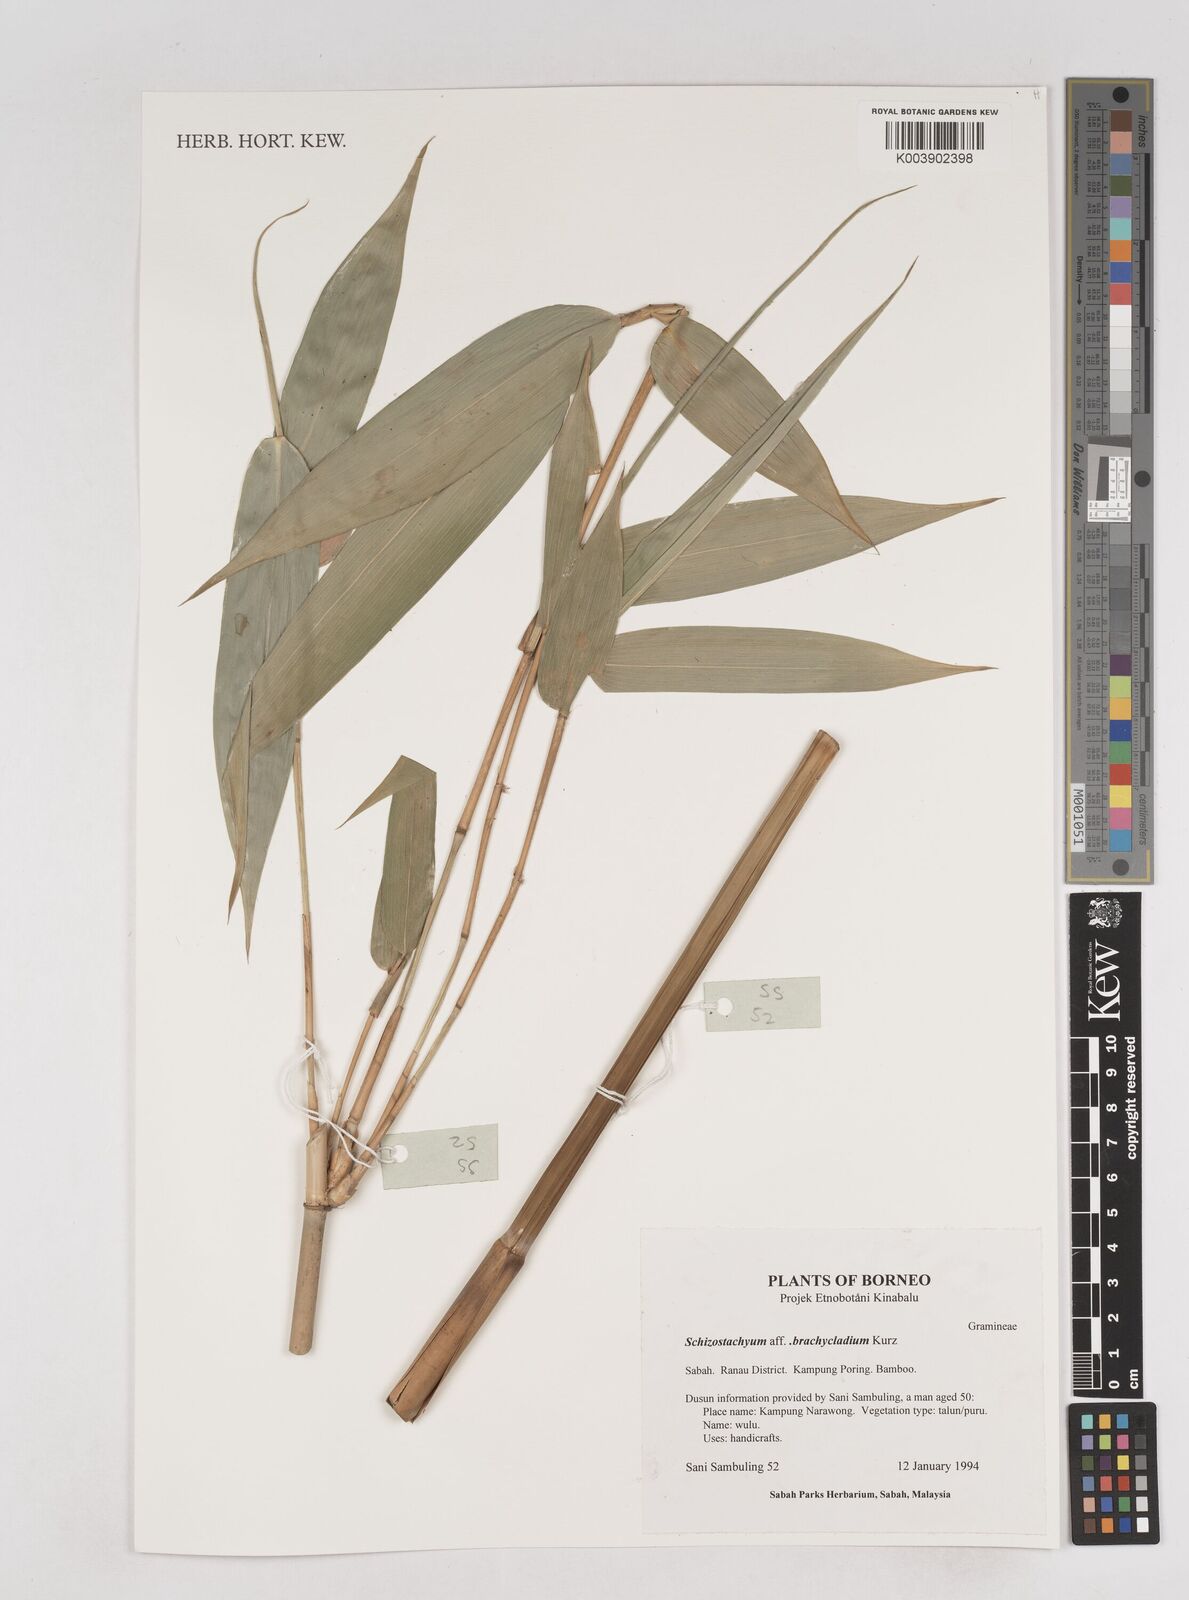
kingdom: Plantae
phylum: Tracheophyta
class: Liliopsida
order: Poales
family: Poaceae
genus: Schizostachyum
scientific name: Schizostachyum
